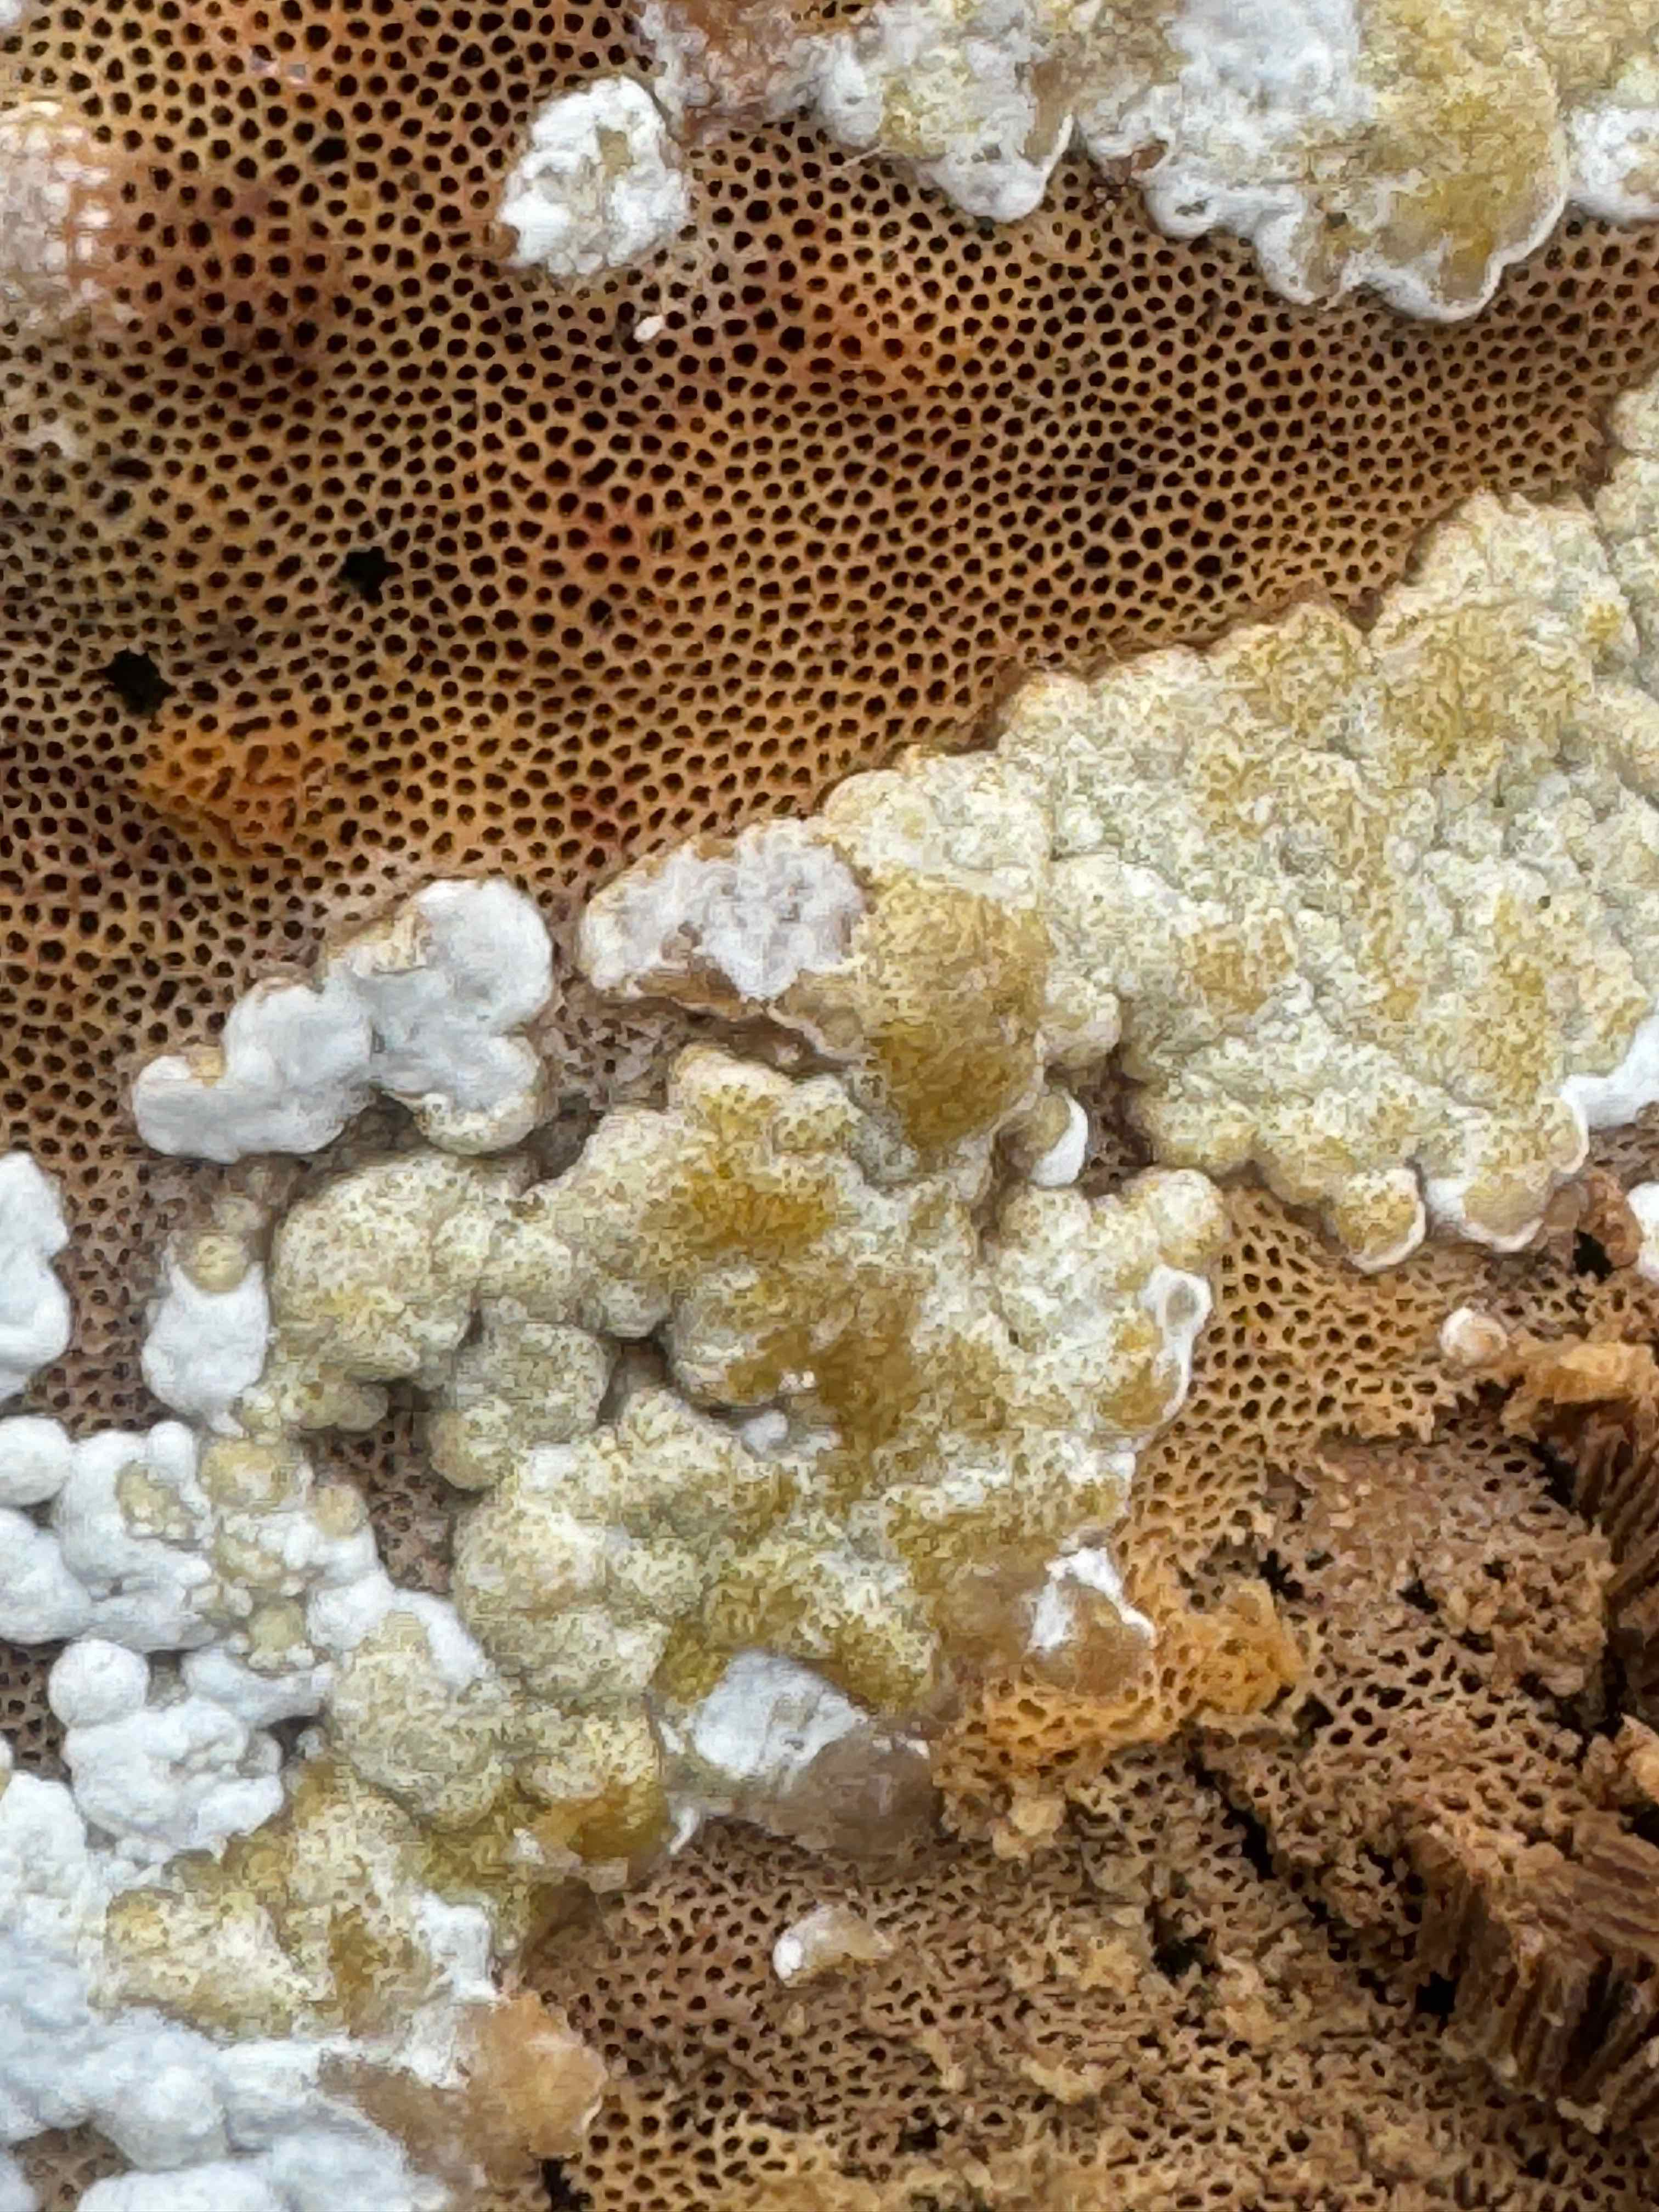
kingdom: Fungi
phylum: Ascomycota
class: Sordariomycetes
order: Hypocreales
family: Hypocreaceae
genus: Trichoderma
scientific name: Trichoderma pulvinatum
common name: snyltende kødkerne
